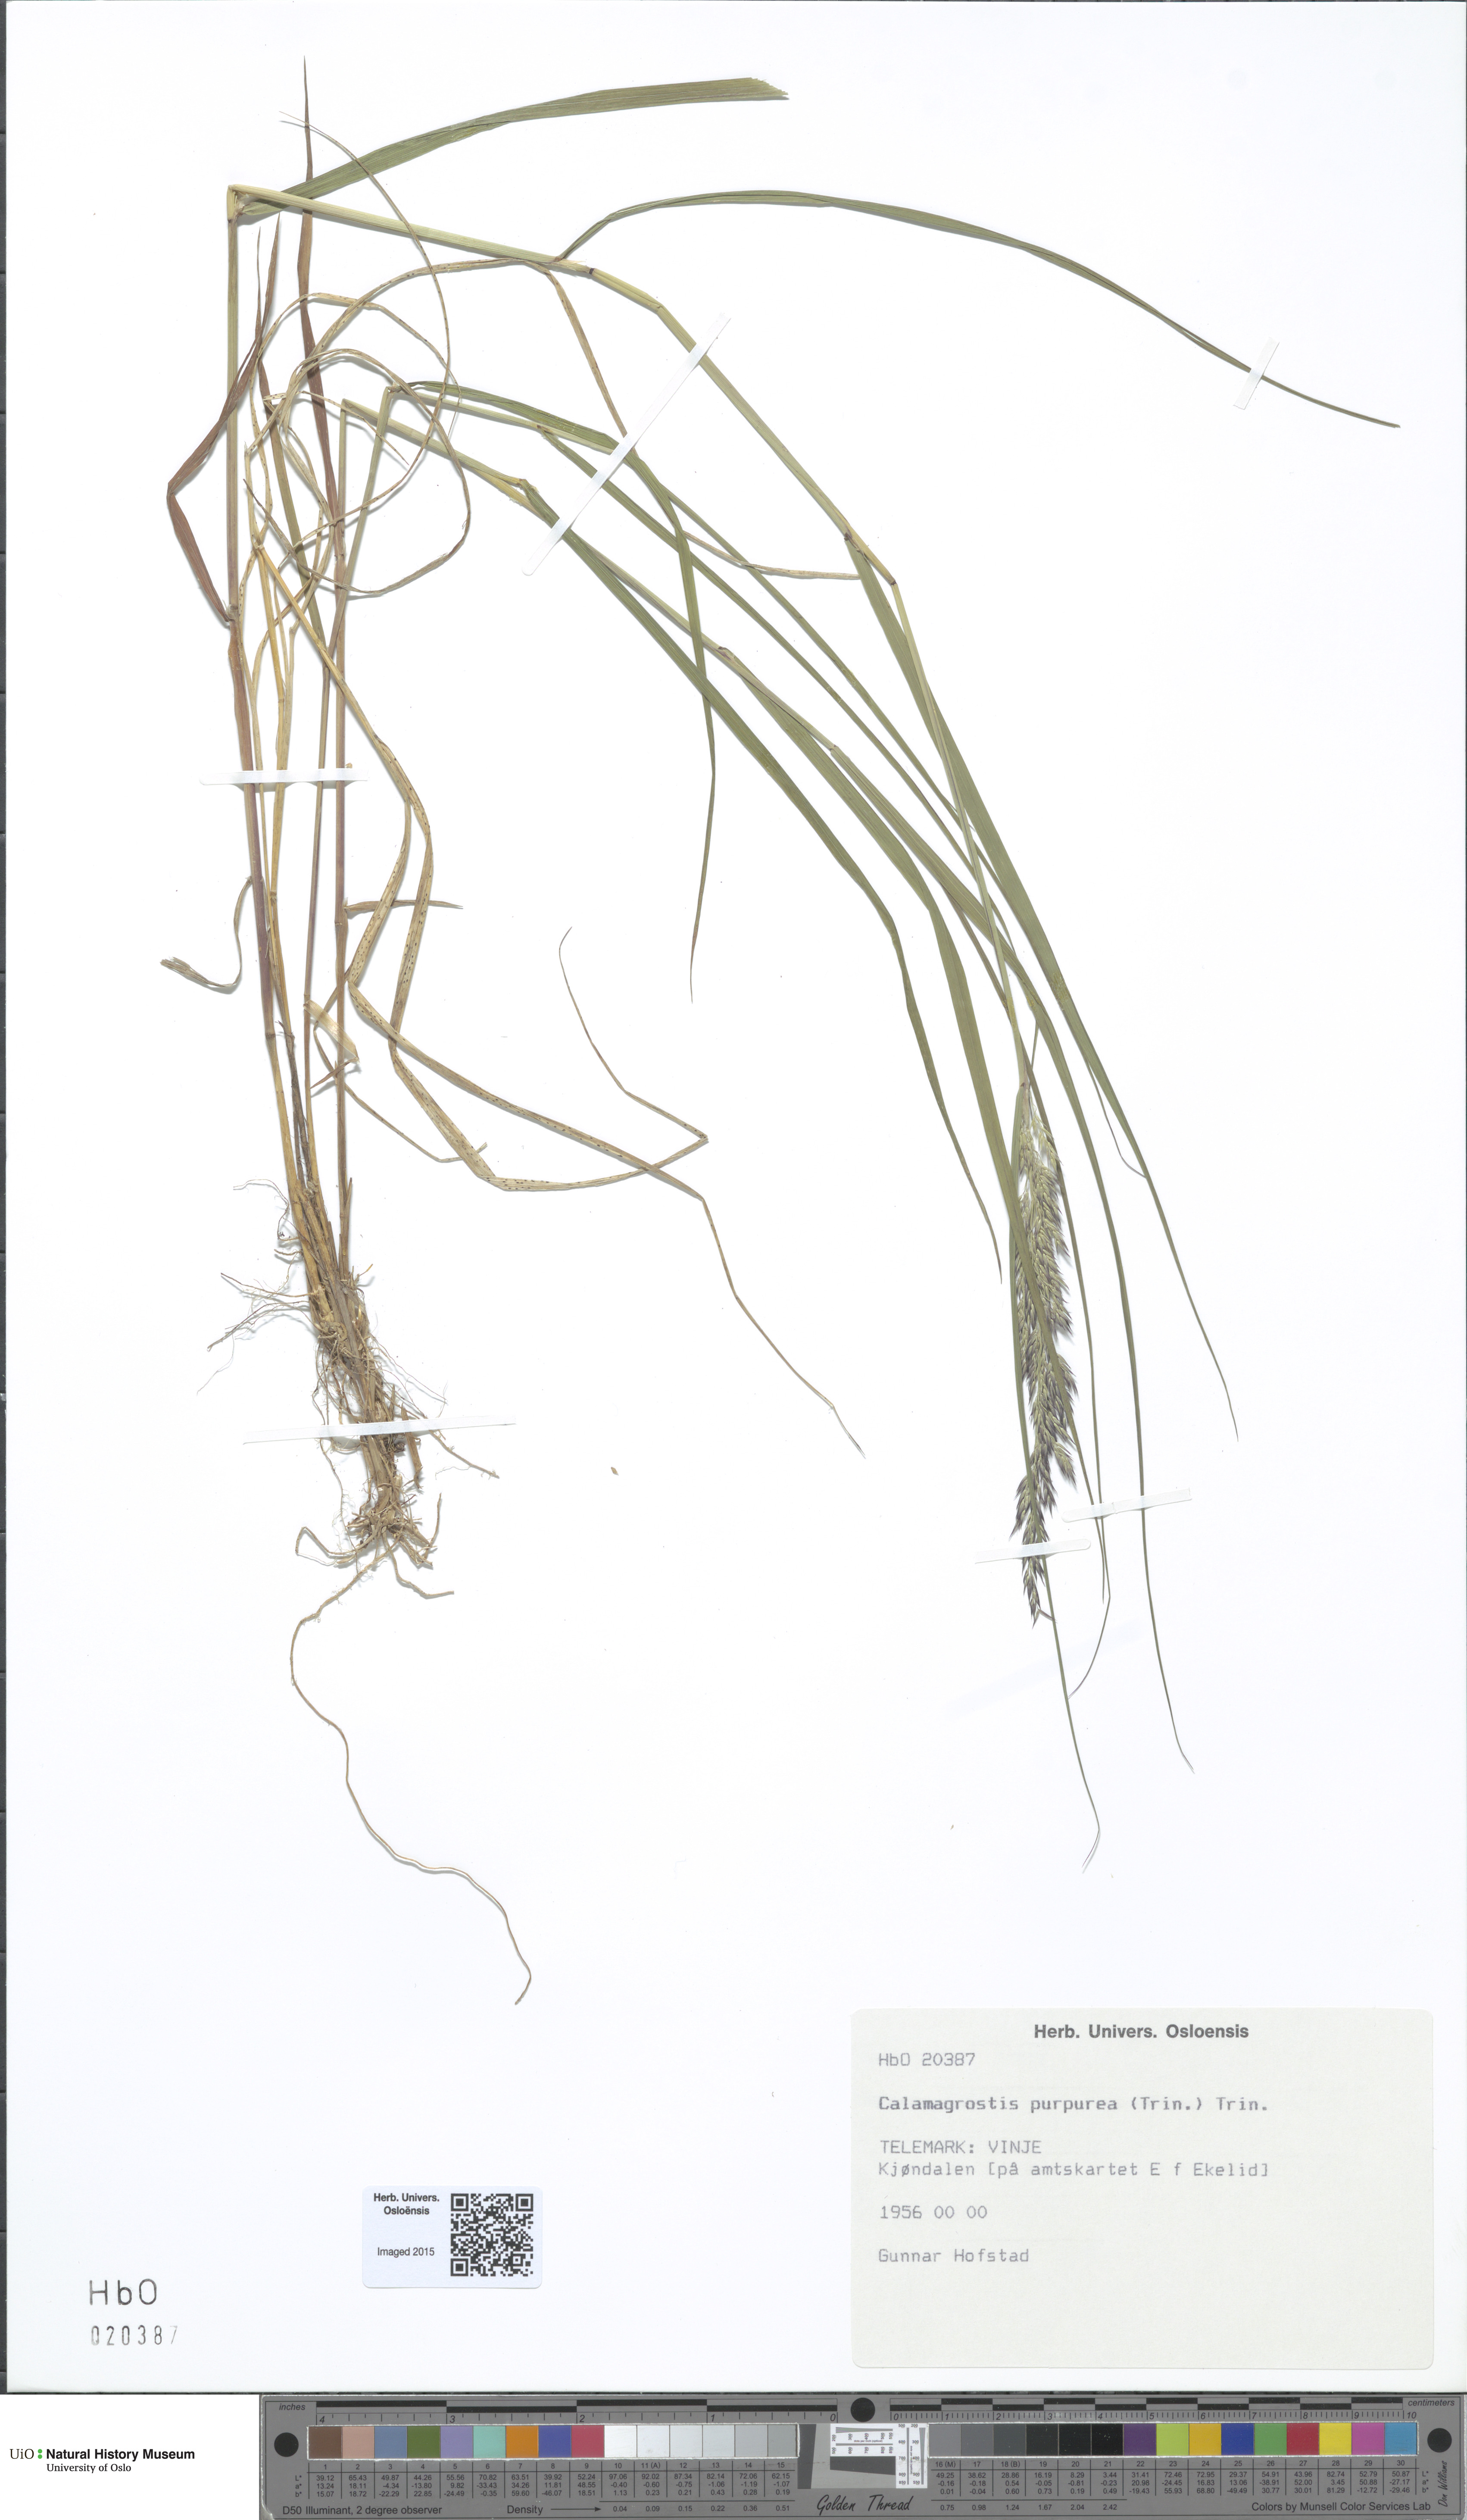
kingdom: Plantae
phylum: Tracheophyta
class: Liliopsida
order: Poales
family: Poaceae
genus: Calamagrostis
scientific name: Calamagrostis purpurea
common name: Scandinavian small-reed
